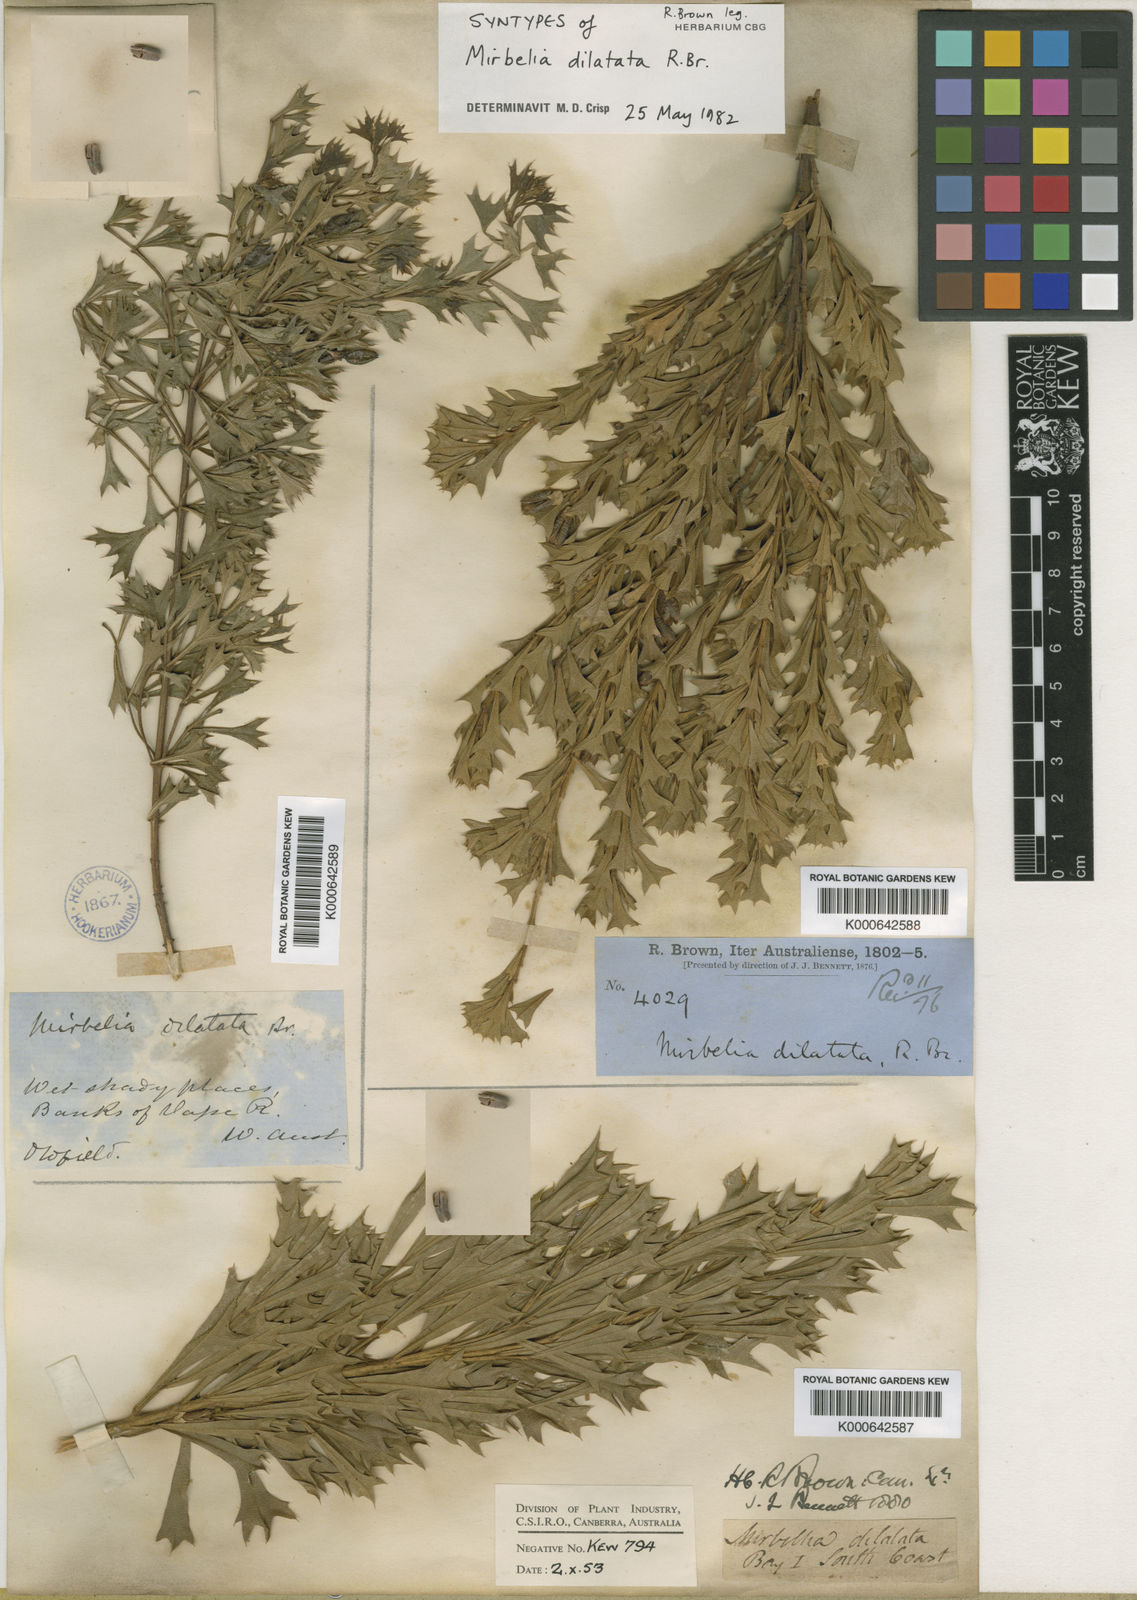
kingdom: Plantae
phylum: Tracheophyta
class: Magnoliopsida
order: Fabales
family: Fabaceae
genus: Mirbelia
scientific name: Mirbelia dilatata
